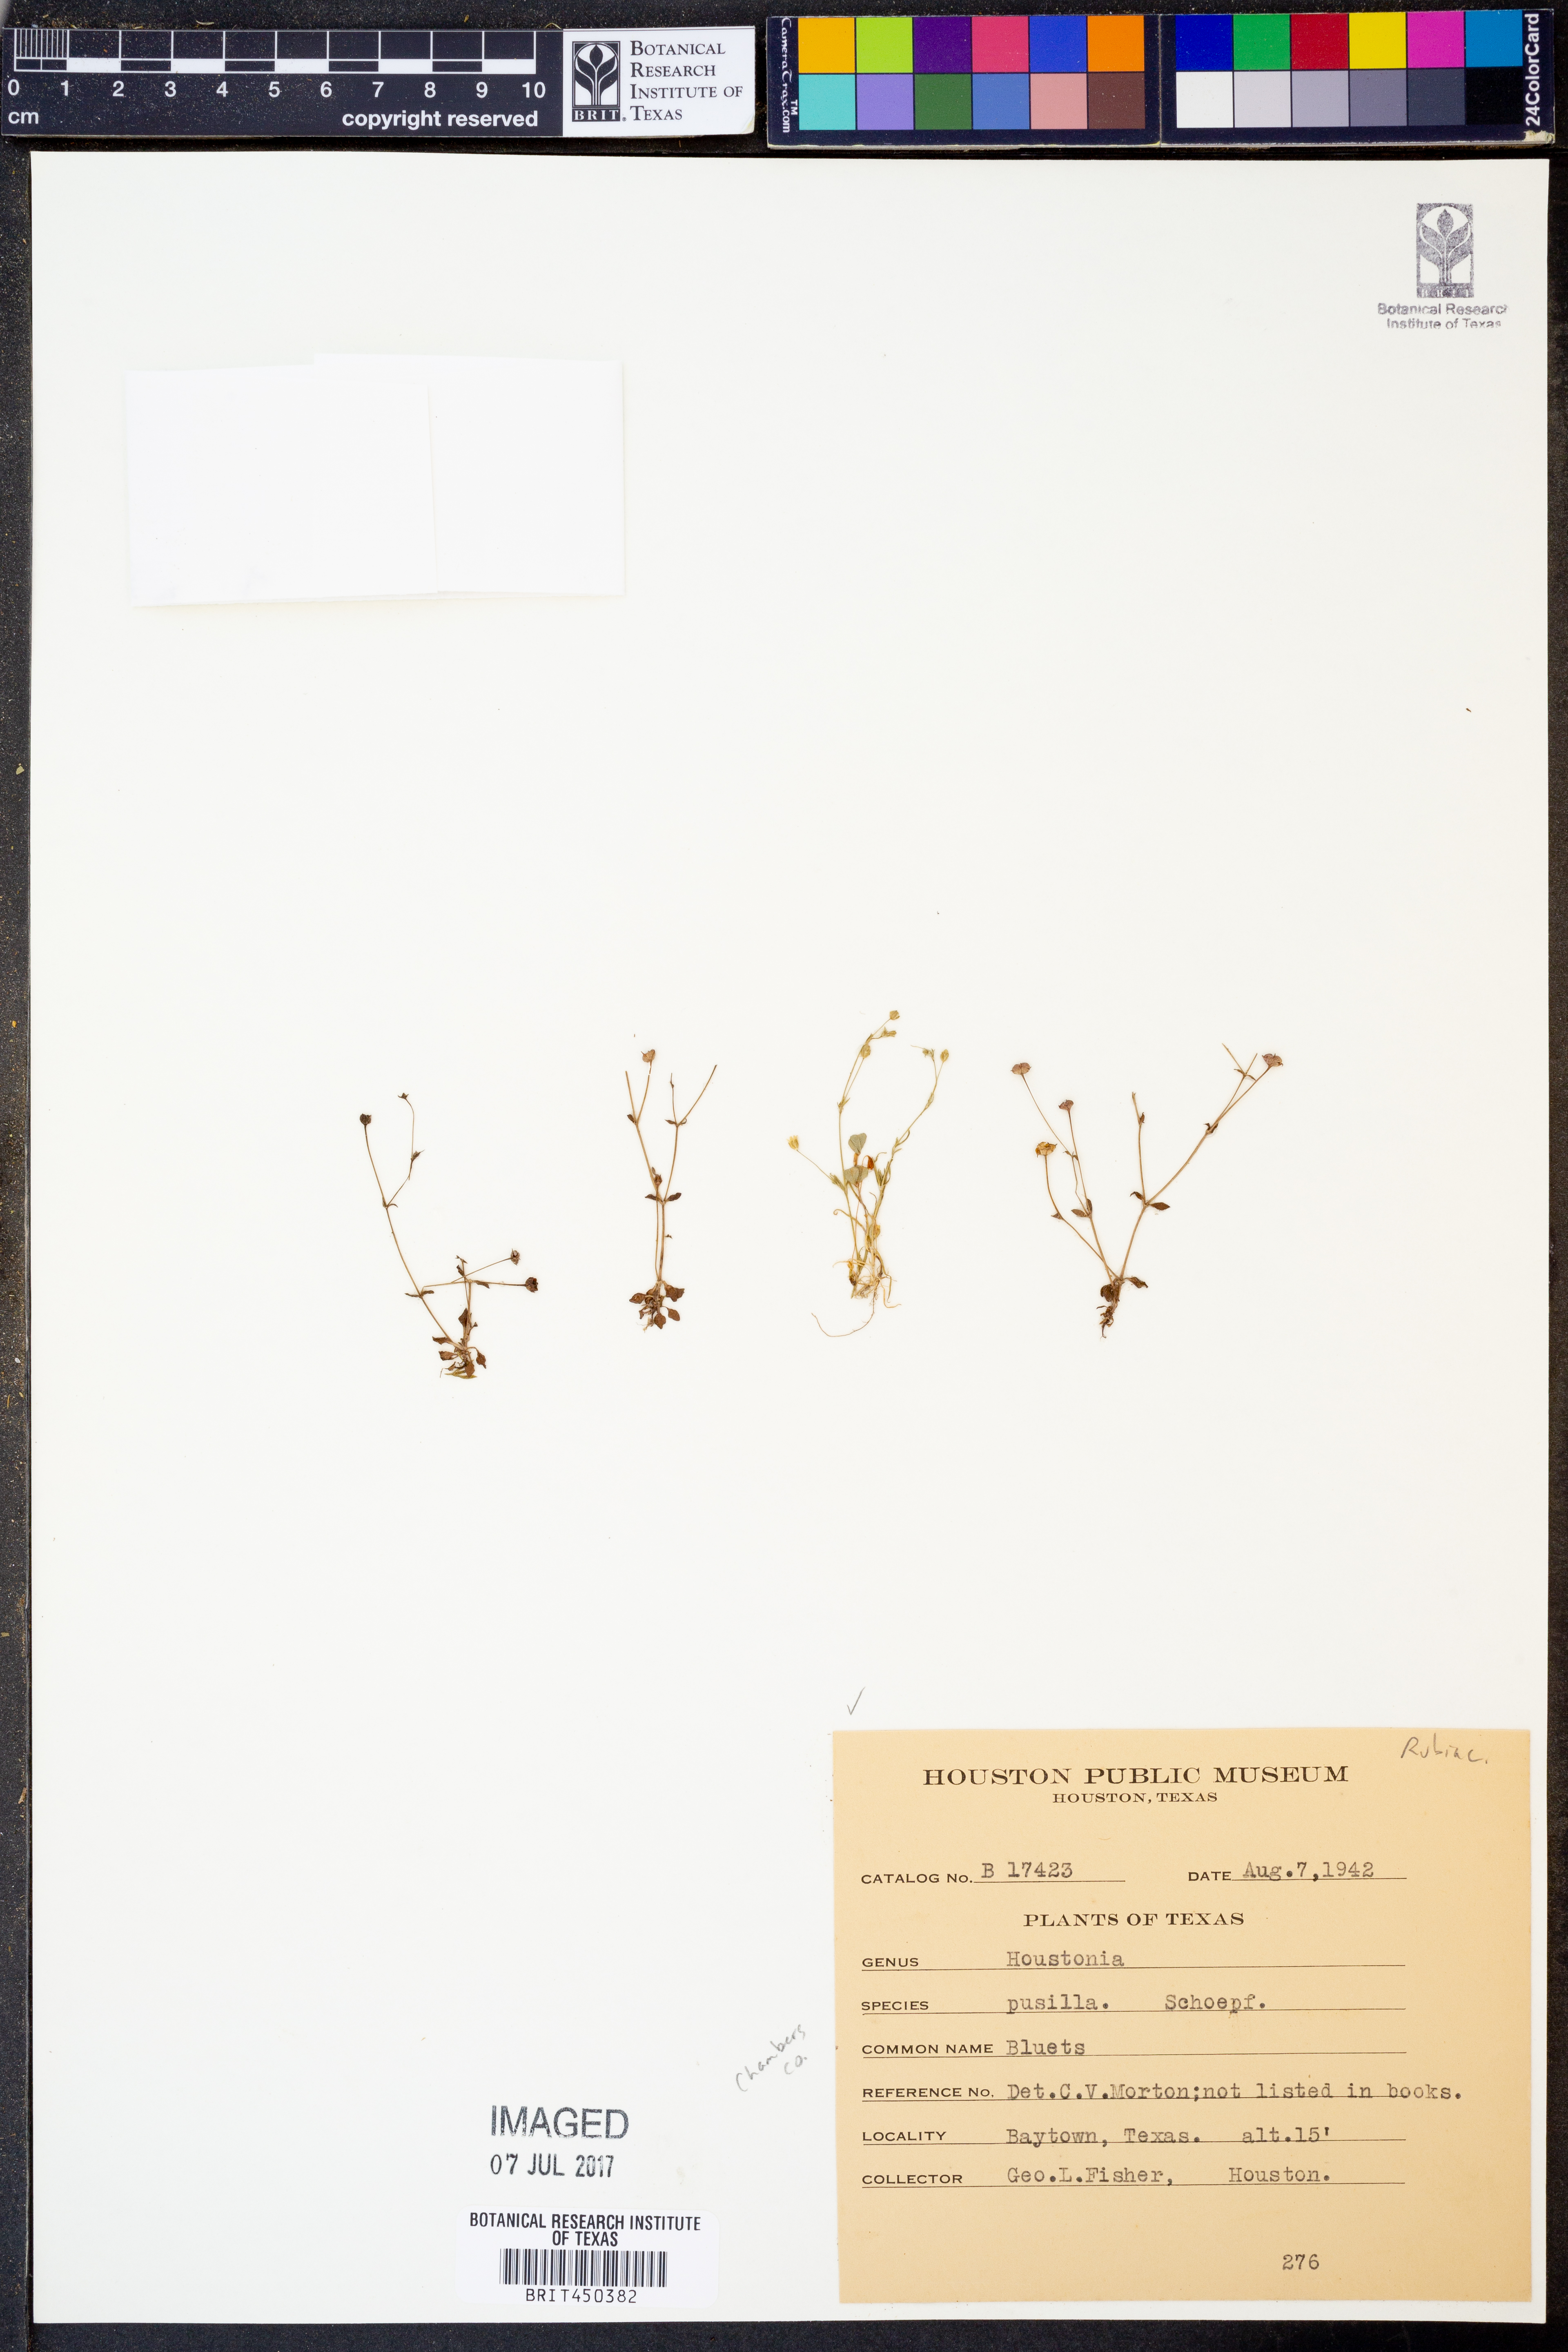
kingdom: Plantae
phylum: Tracheophyta
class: Magnoliopsida
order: Gentianales
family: Rubiaceae
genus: Houstonia
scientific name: Houstonia pusilla
